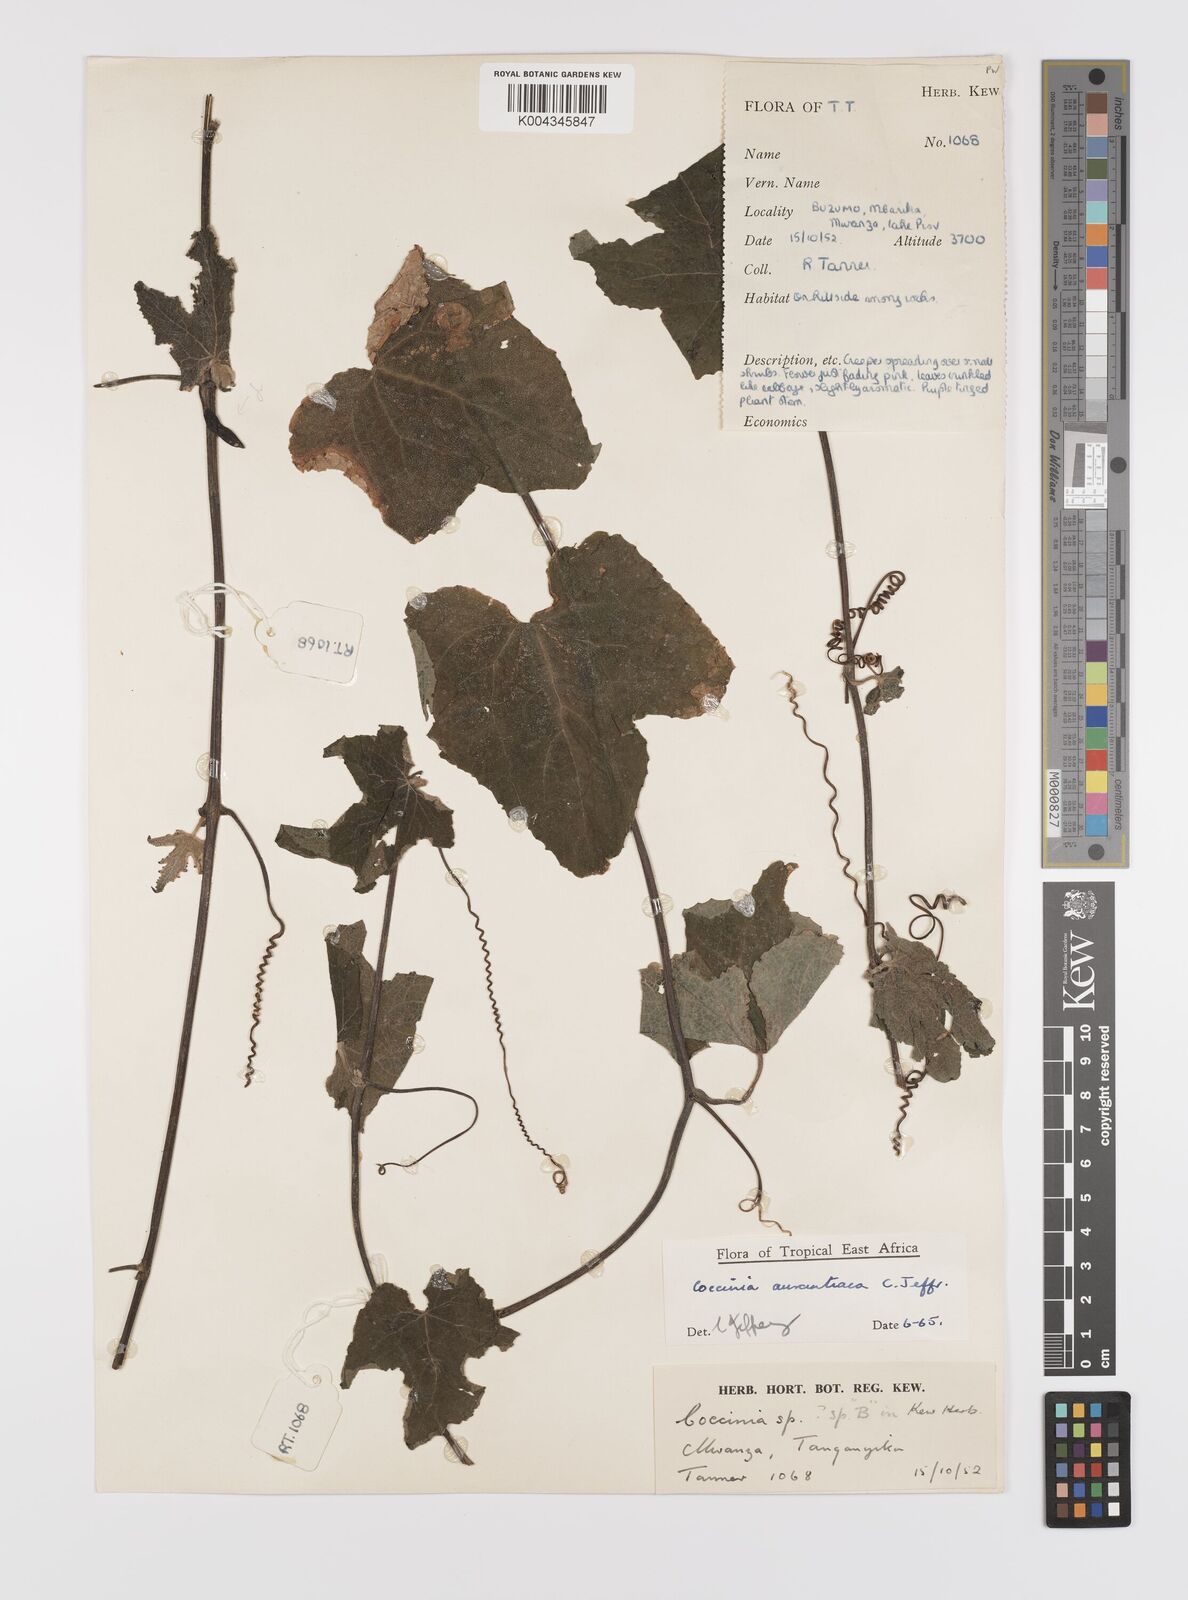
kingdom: Plantae
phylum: Tracheophyta
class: Magnoliopsida
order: Cucurbitales
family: Cucurbitaceae
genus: Coccinia
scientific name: Coccinia adoensis
